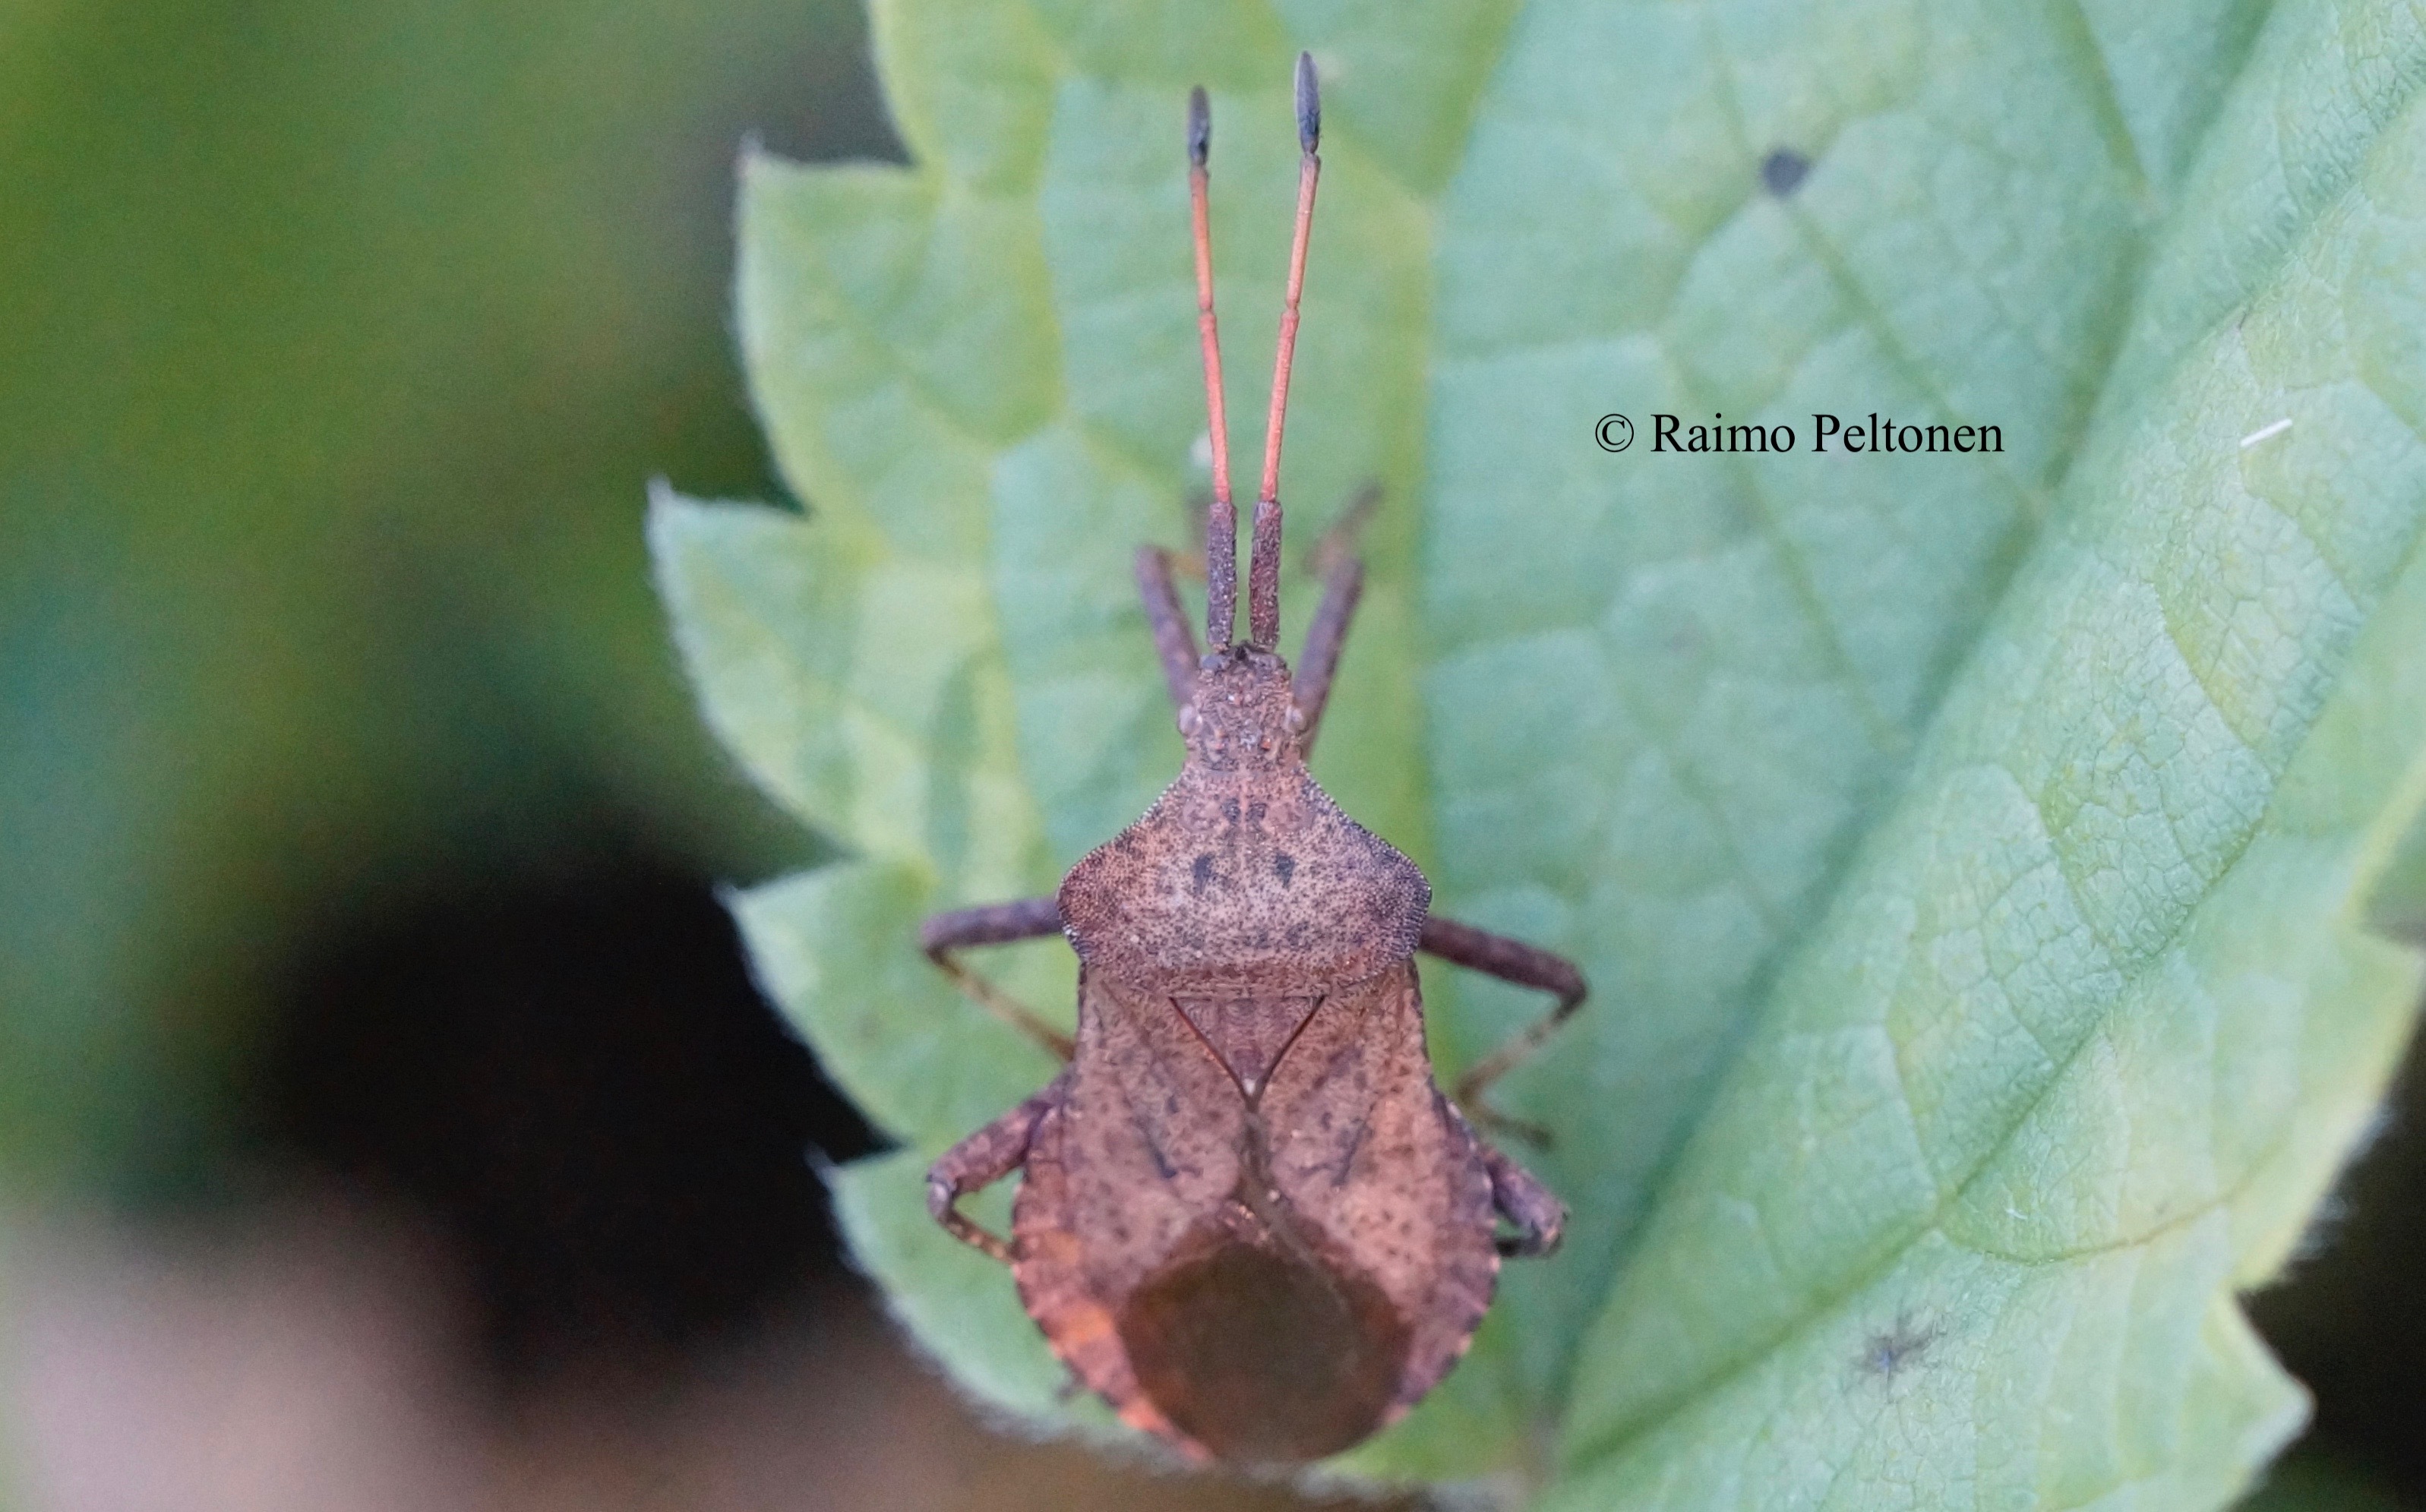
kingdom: Animalia
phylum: Arthropoda
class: Insecta
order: Hemiptera
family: Coreidae
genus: Coreus
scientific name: Coreus marginatus
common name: Dock bug
